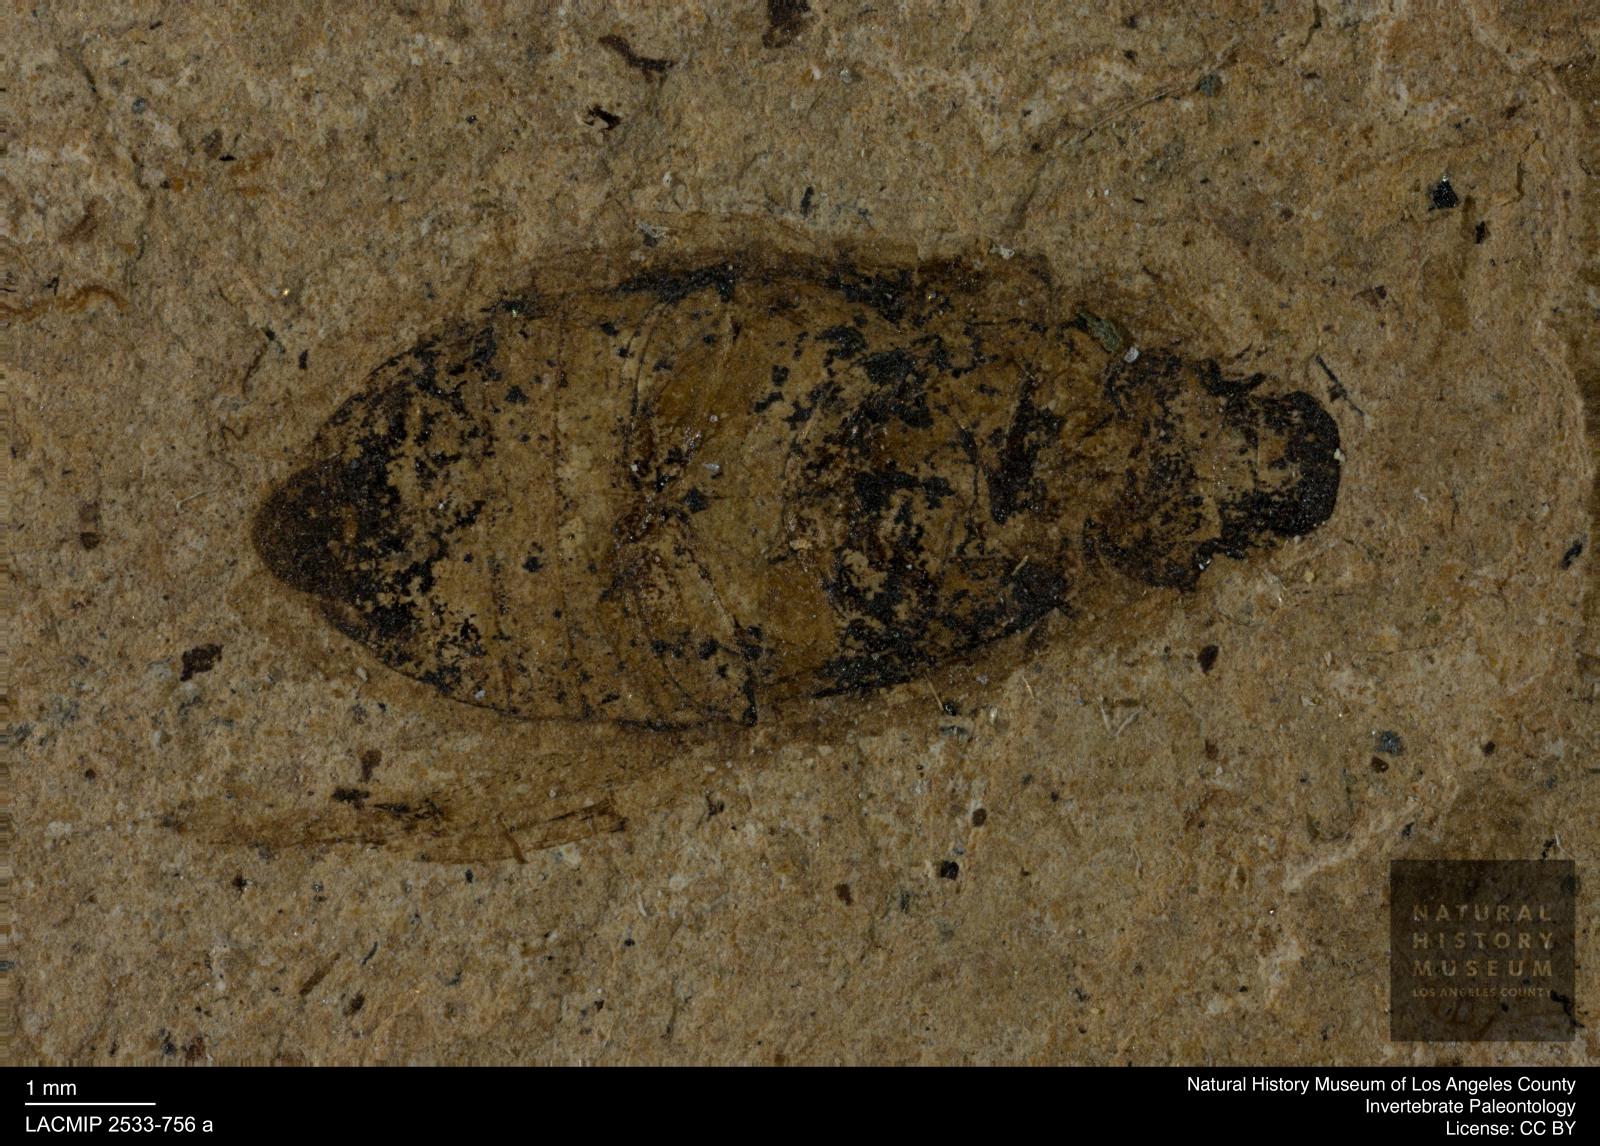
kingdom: Animalia
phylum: Arthropoda
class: Insecta
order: Coleoptera
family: Hydrophilidae
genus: Berosus
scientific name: Berosus morticinus
